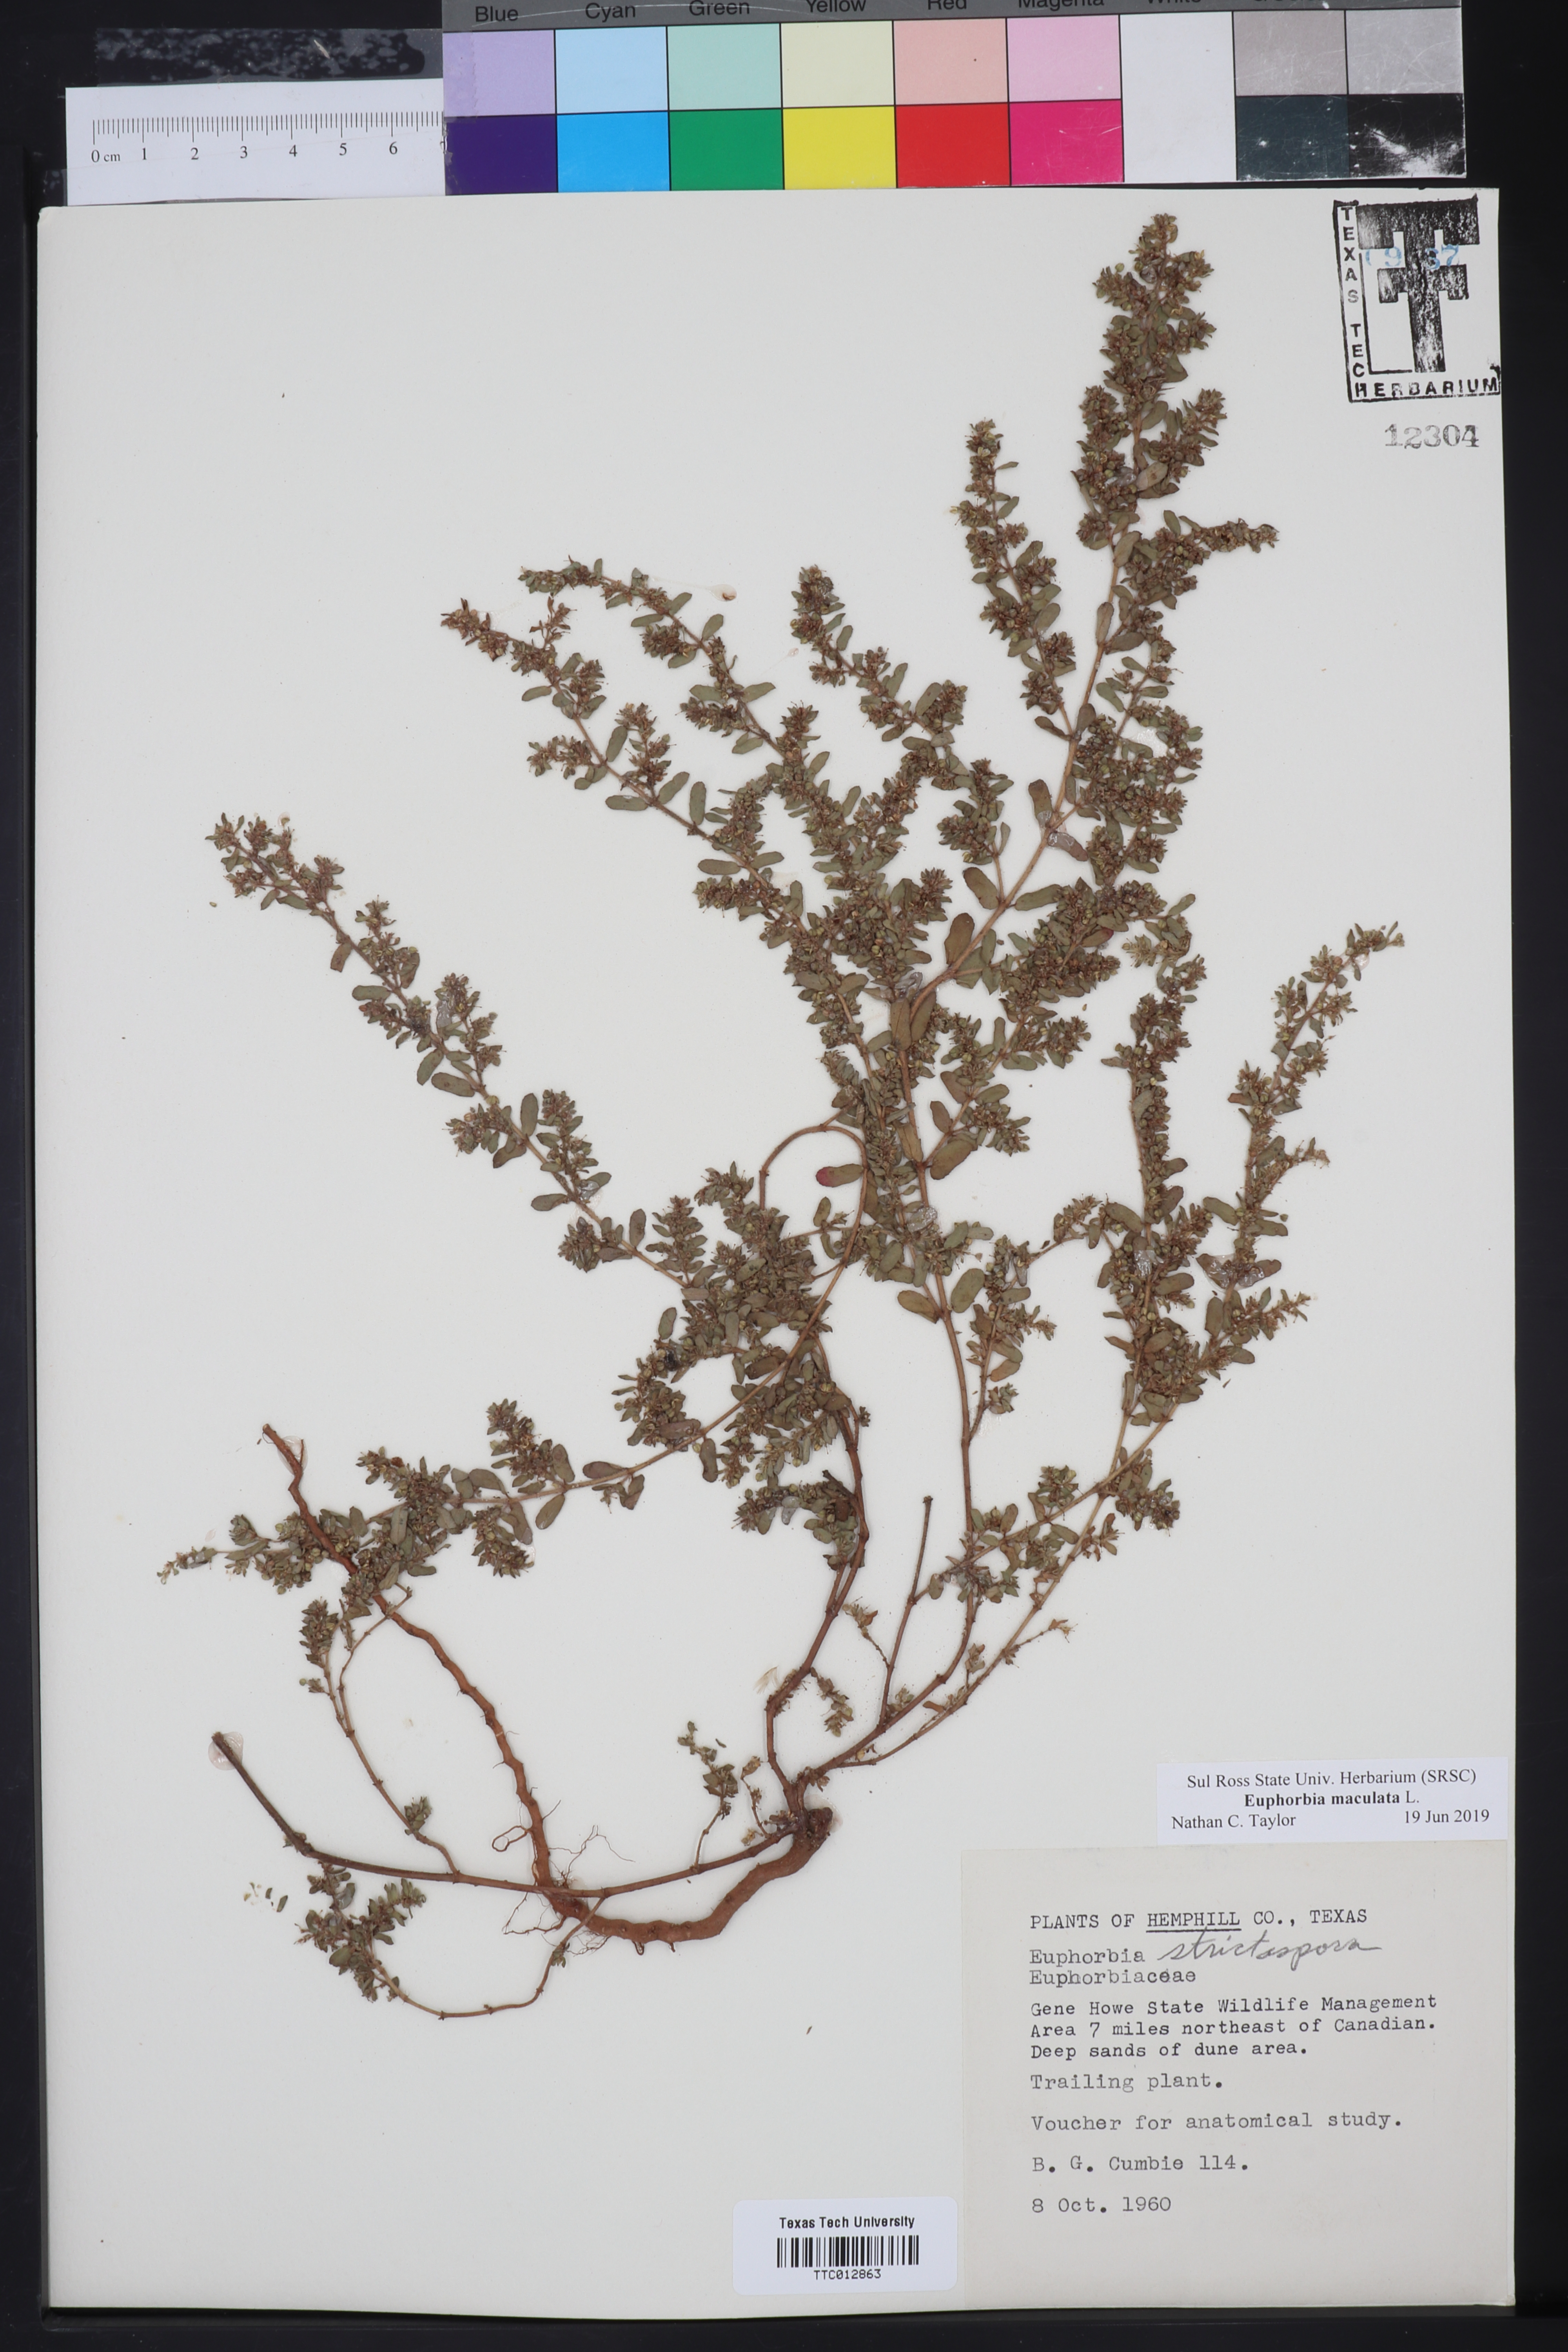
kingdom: Plantae
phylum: Tracheophyta
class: Magnoliopsida
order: Malpighiales
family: Euphorbiaceae
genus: Euphorbia
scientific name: Euphorbia maculata
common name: Spotted spurge
